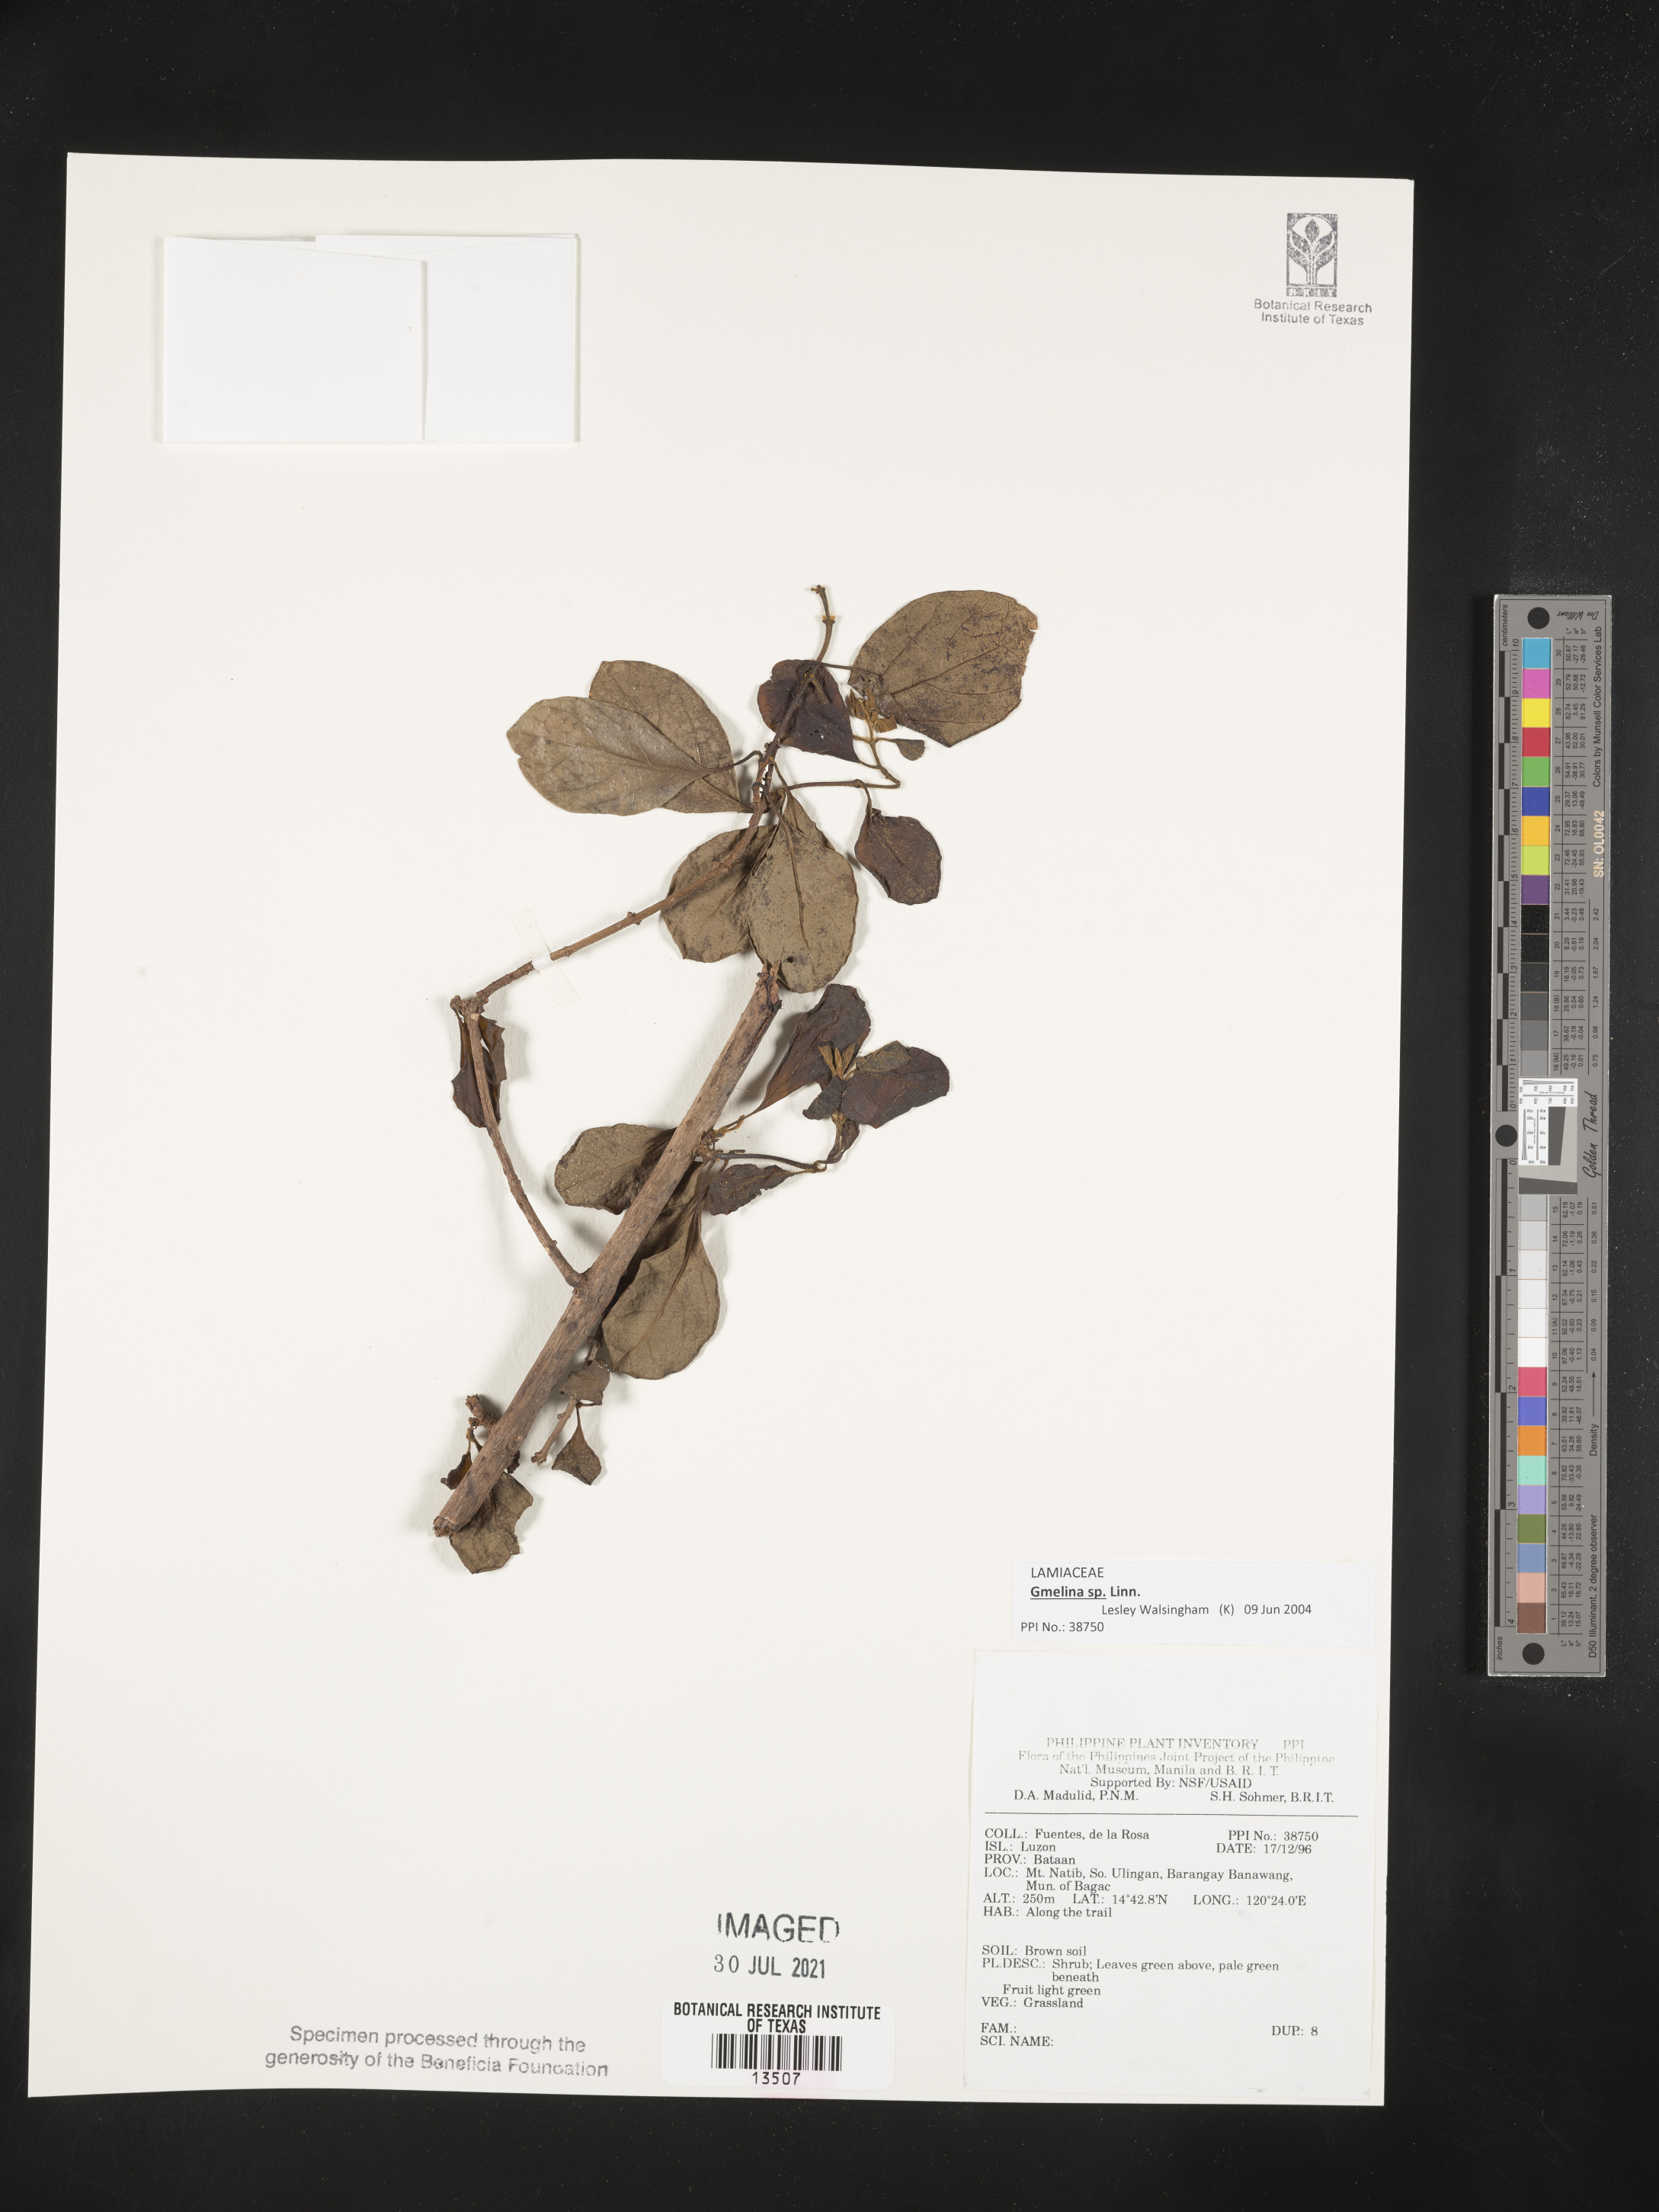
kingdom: Plantae
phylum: Tracheophyta
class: Magnoliopsida
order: Lamiales
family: Lamiaceae
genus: Gmelina
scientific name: Gmelina
